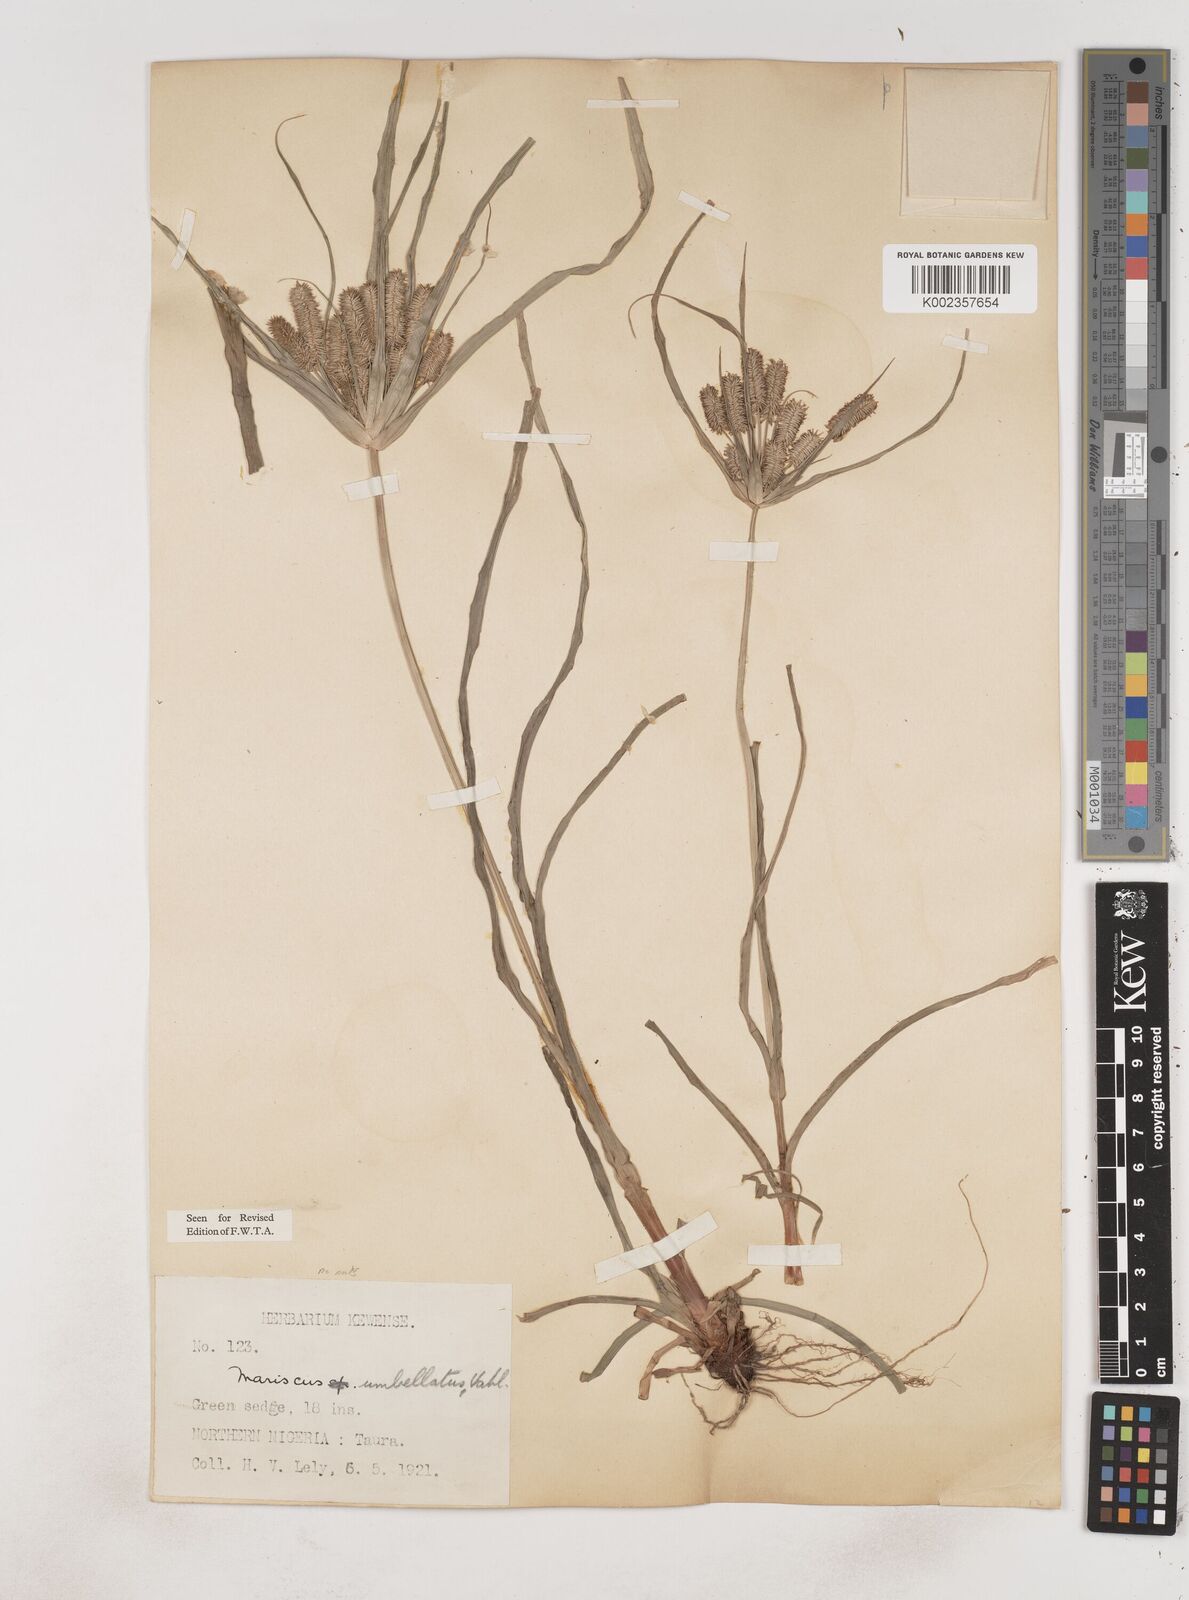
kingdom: Plantae
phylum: Tracheophyta
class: Liliopsida
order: Poales
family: Cyperaceae
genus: Cyperus
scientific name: Cyperus cyperoides
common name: Pacific island flat sedge
